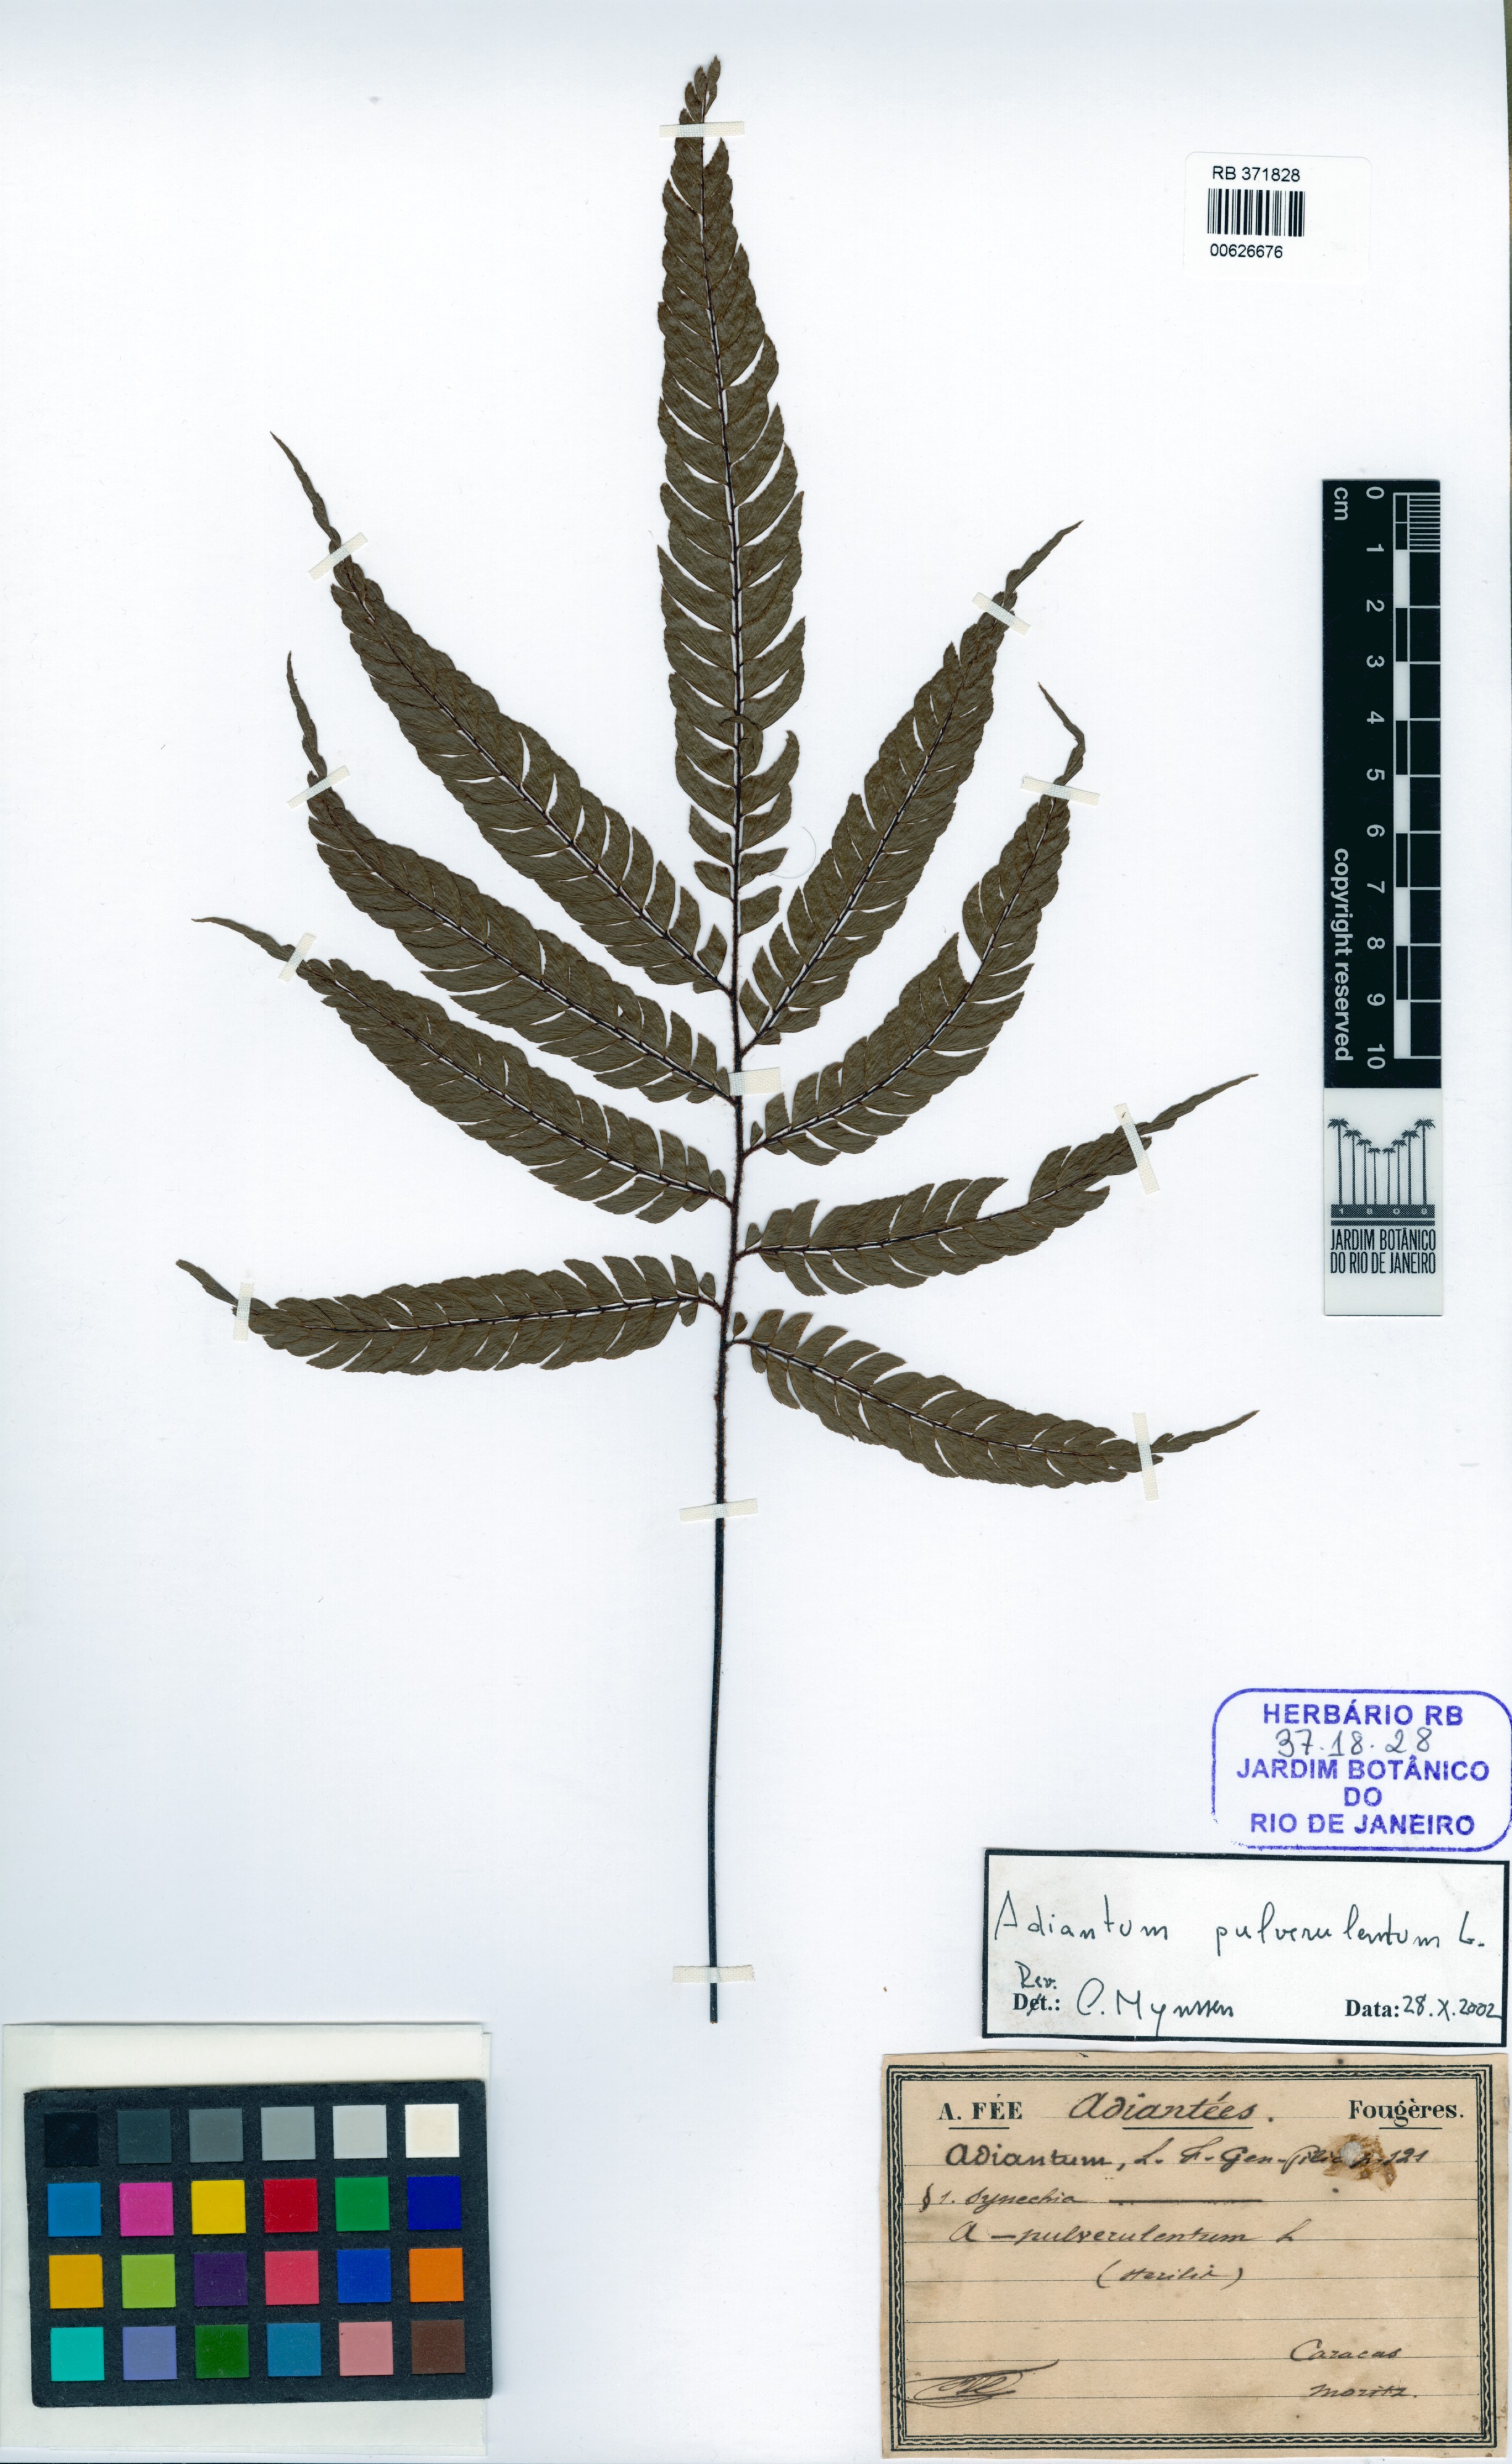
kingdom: Plantae
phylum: Tracheophyta
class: Polypodiopsida
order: Polypodiales
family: Pteridaceae
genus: Adiantum
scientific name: Adiantum pulverulentum
